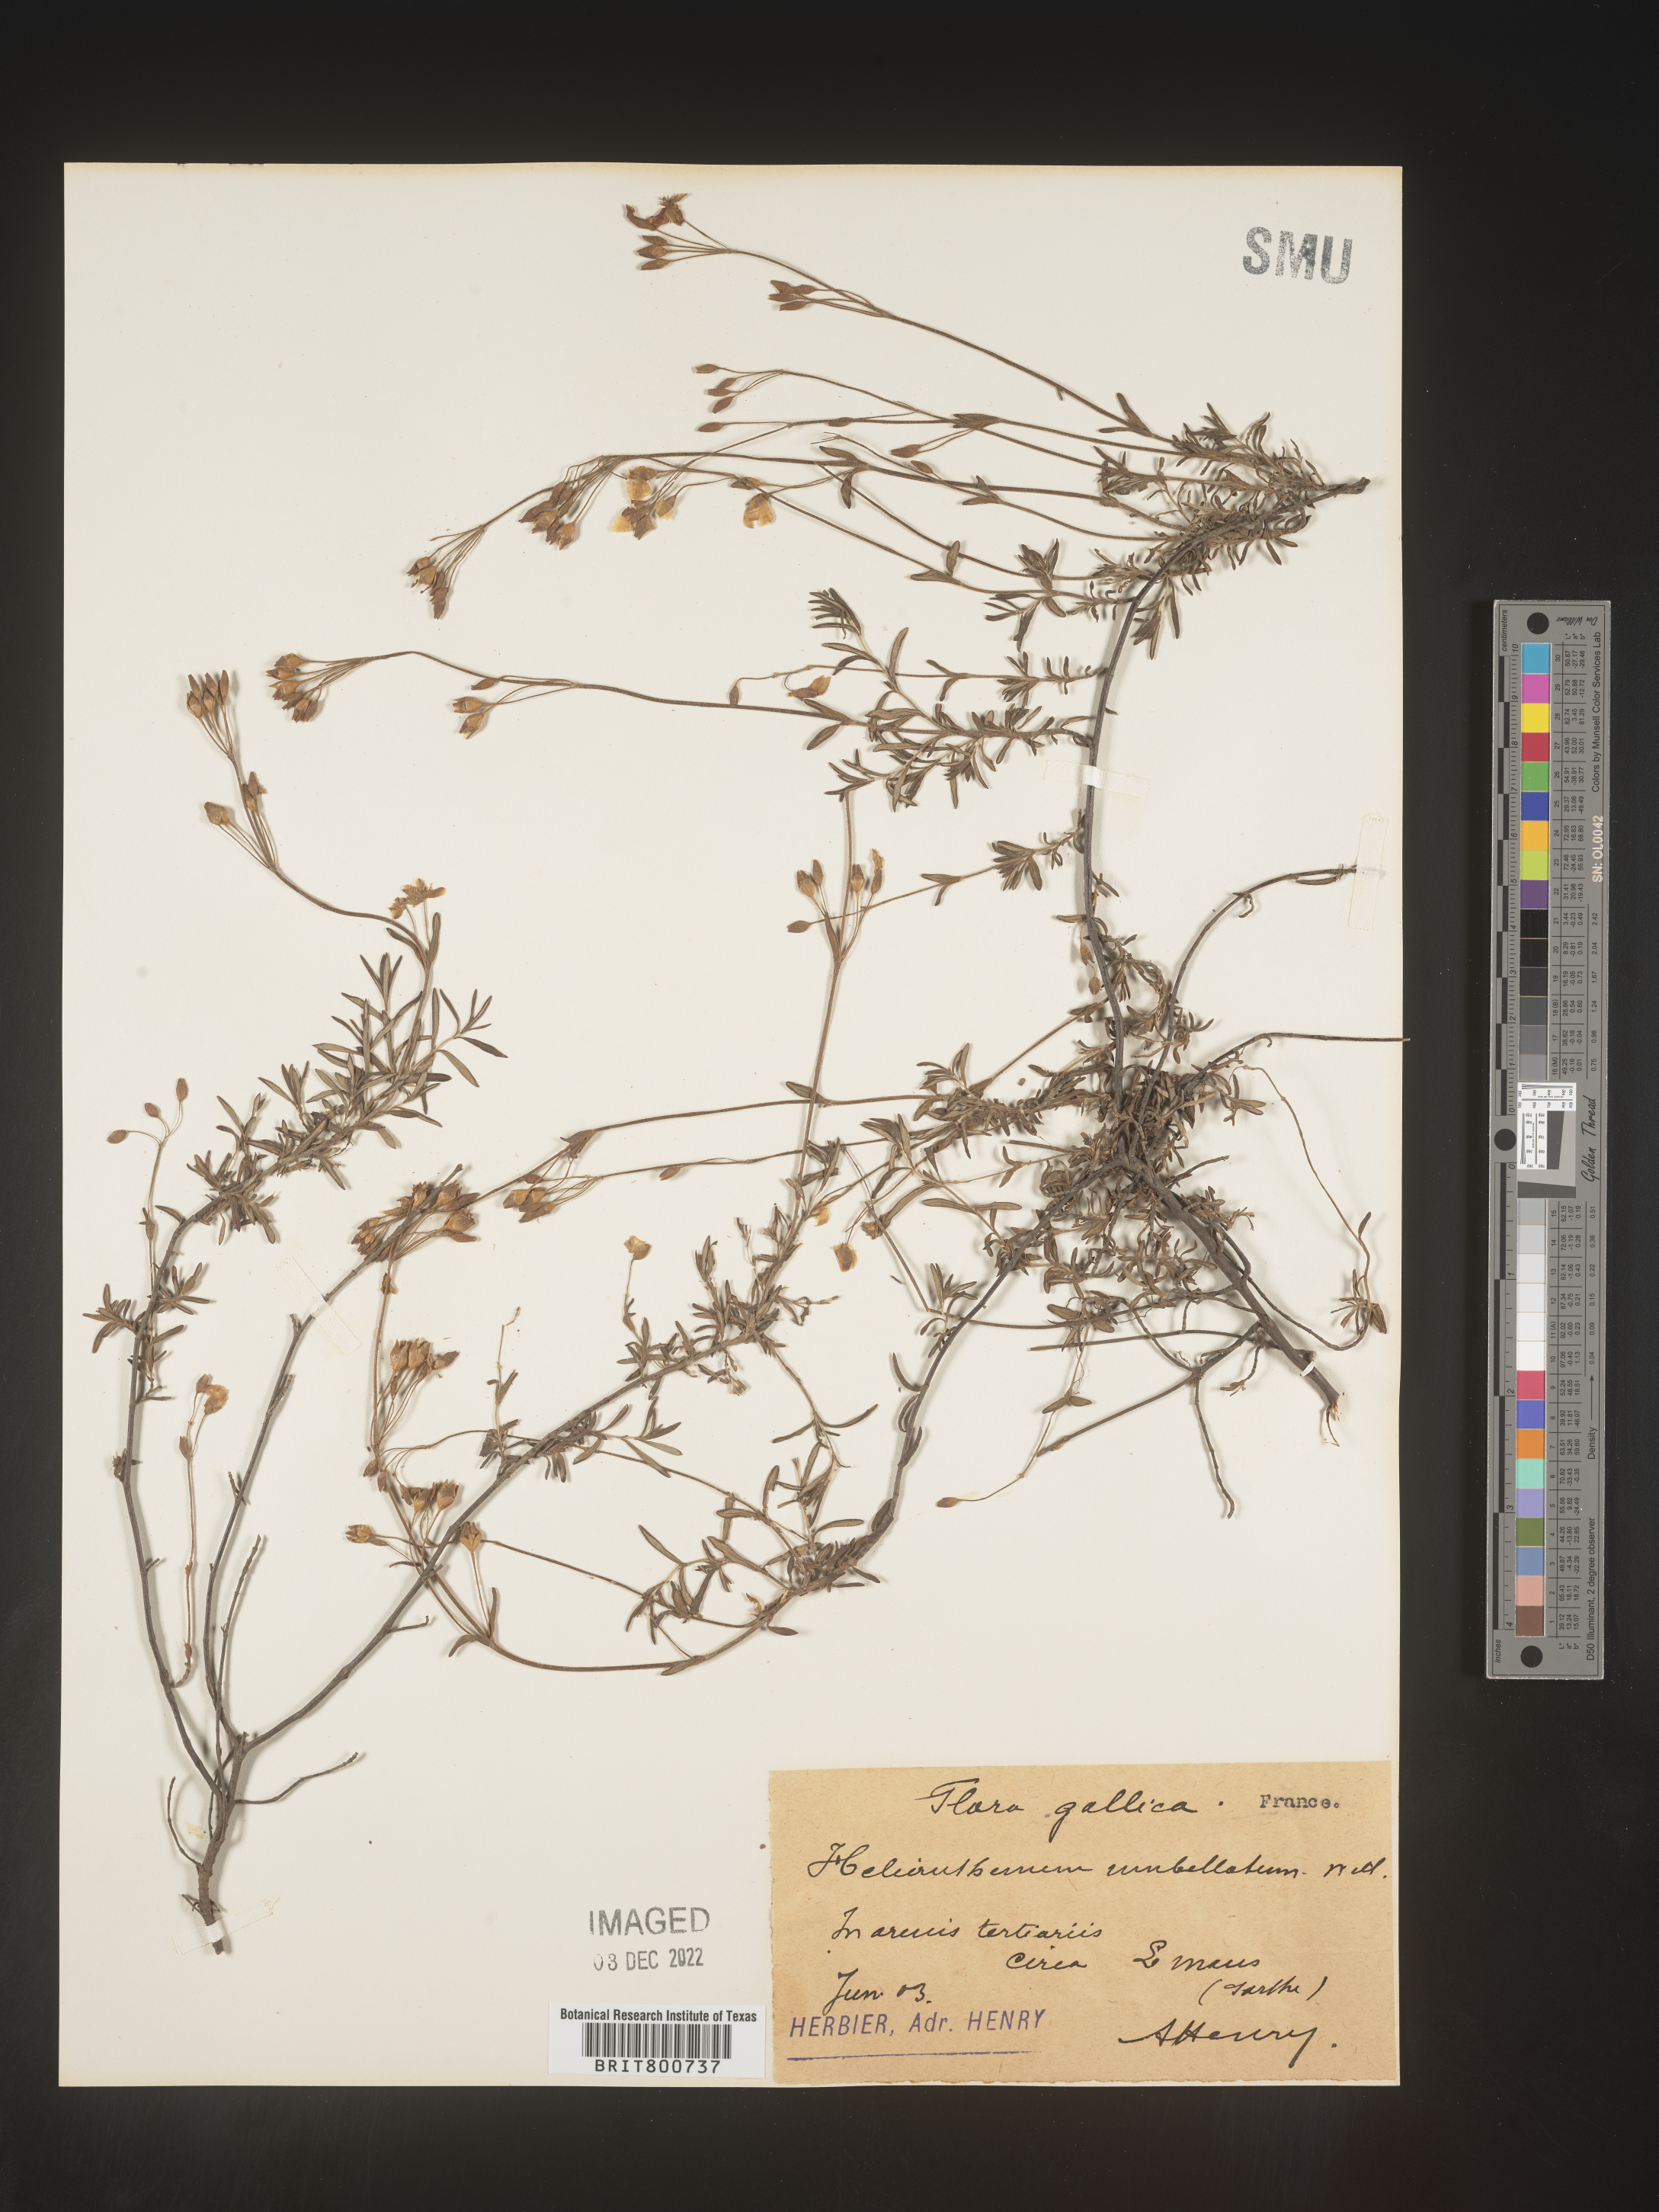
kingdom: Plantae
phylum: Tracheophyta
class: Magnoliopsida
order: Malvales
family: Cistaceae
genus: Helianthemum
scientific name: Helianthemum
